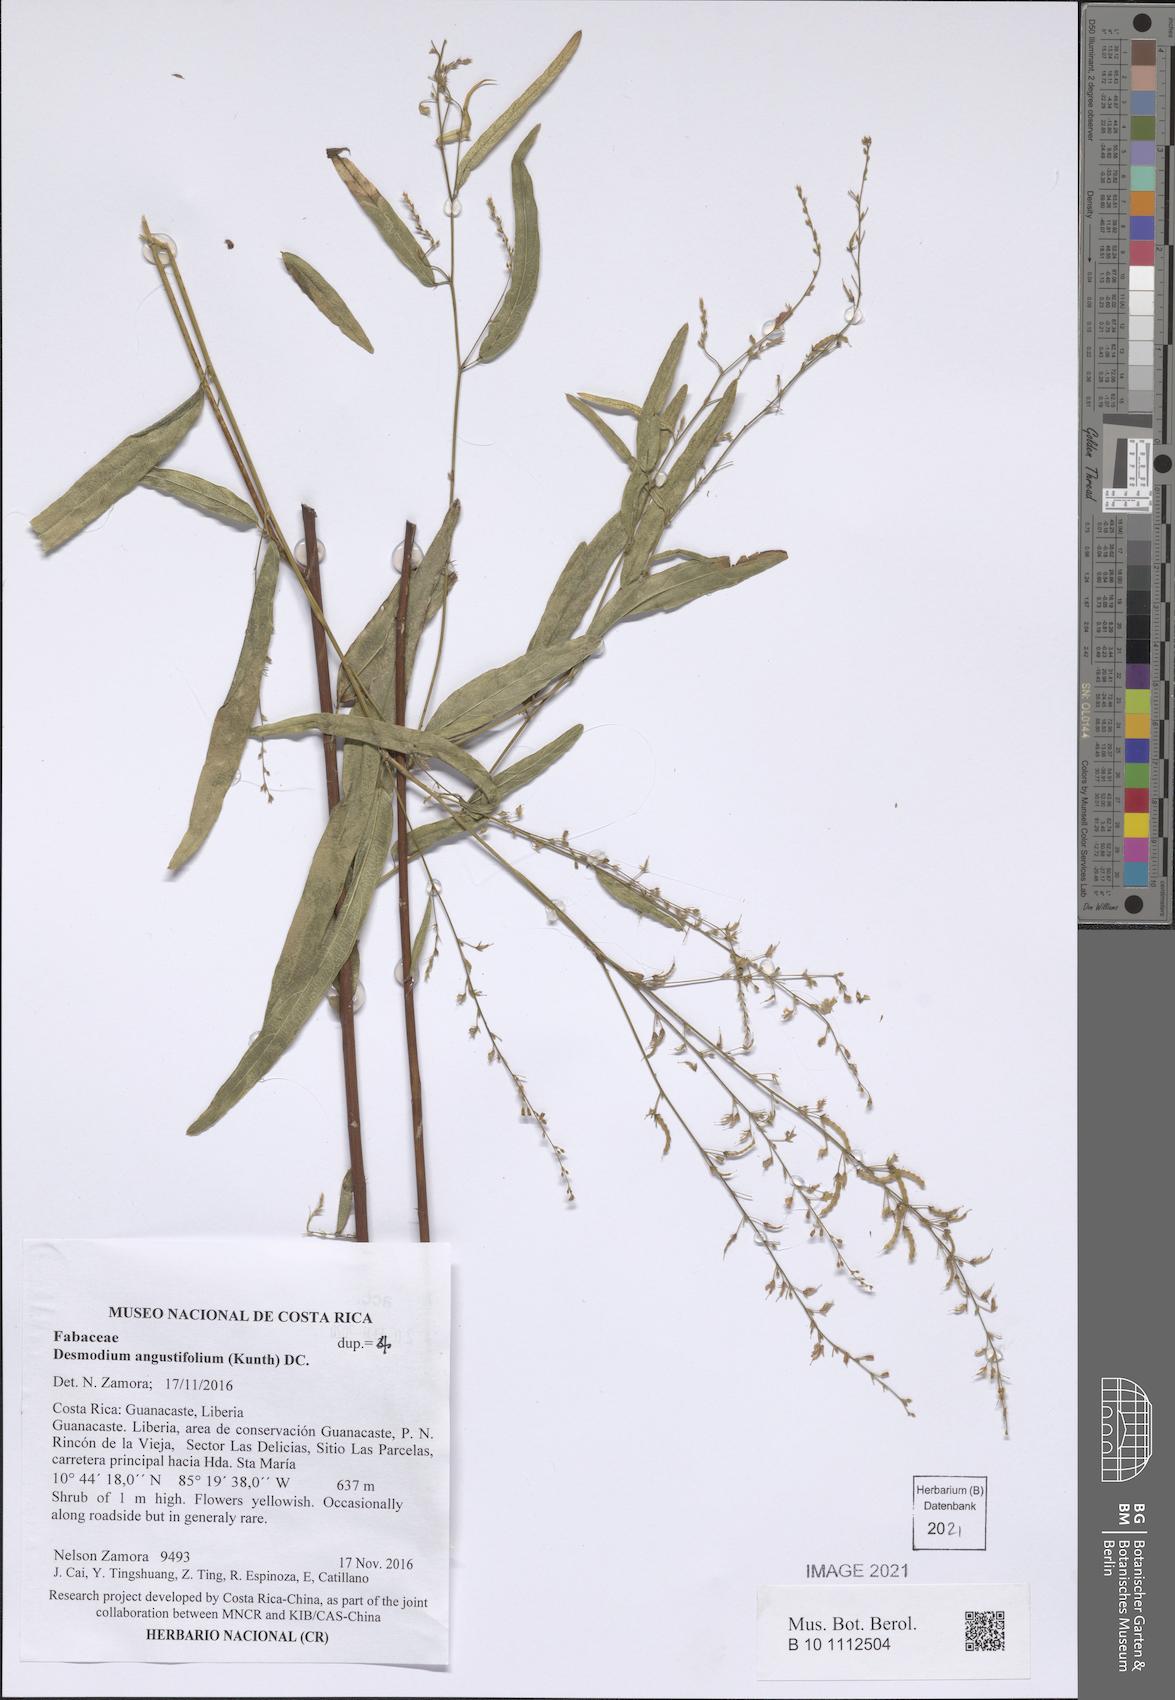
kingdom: Plantae
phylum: Tracheophyta
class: Magnoliopsida
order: Fabales
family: Fabaceae
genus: Desmodium
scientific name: Desmodium angustifolium
